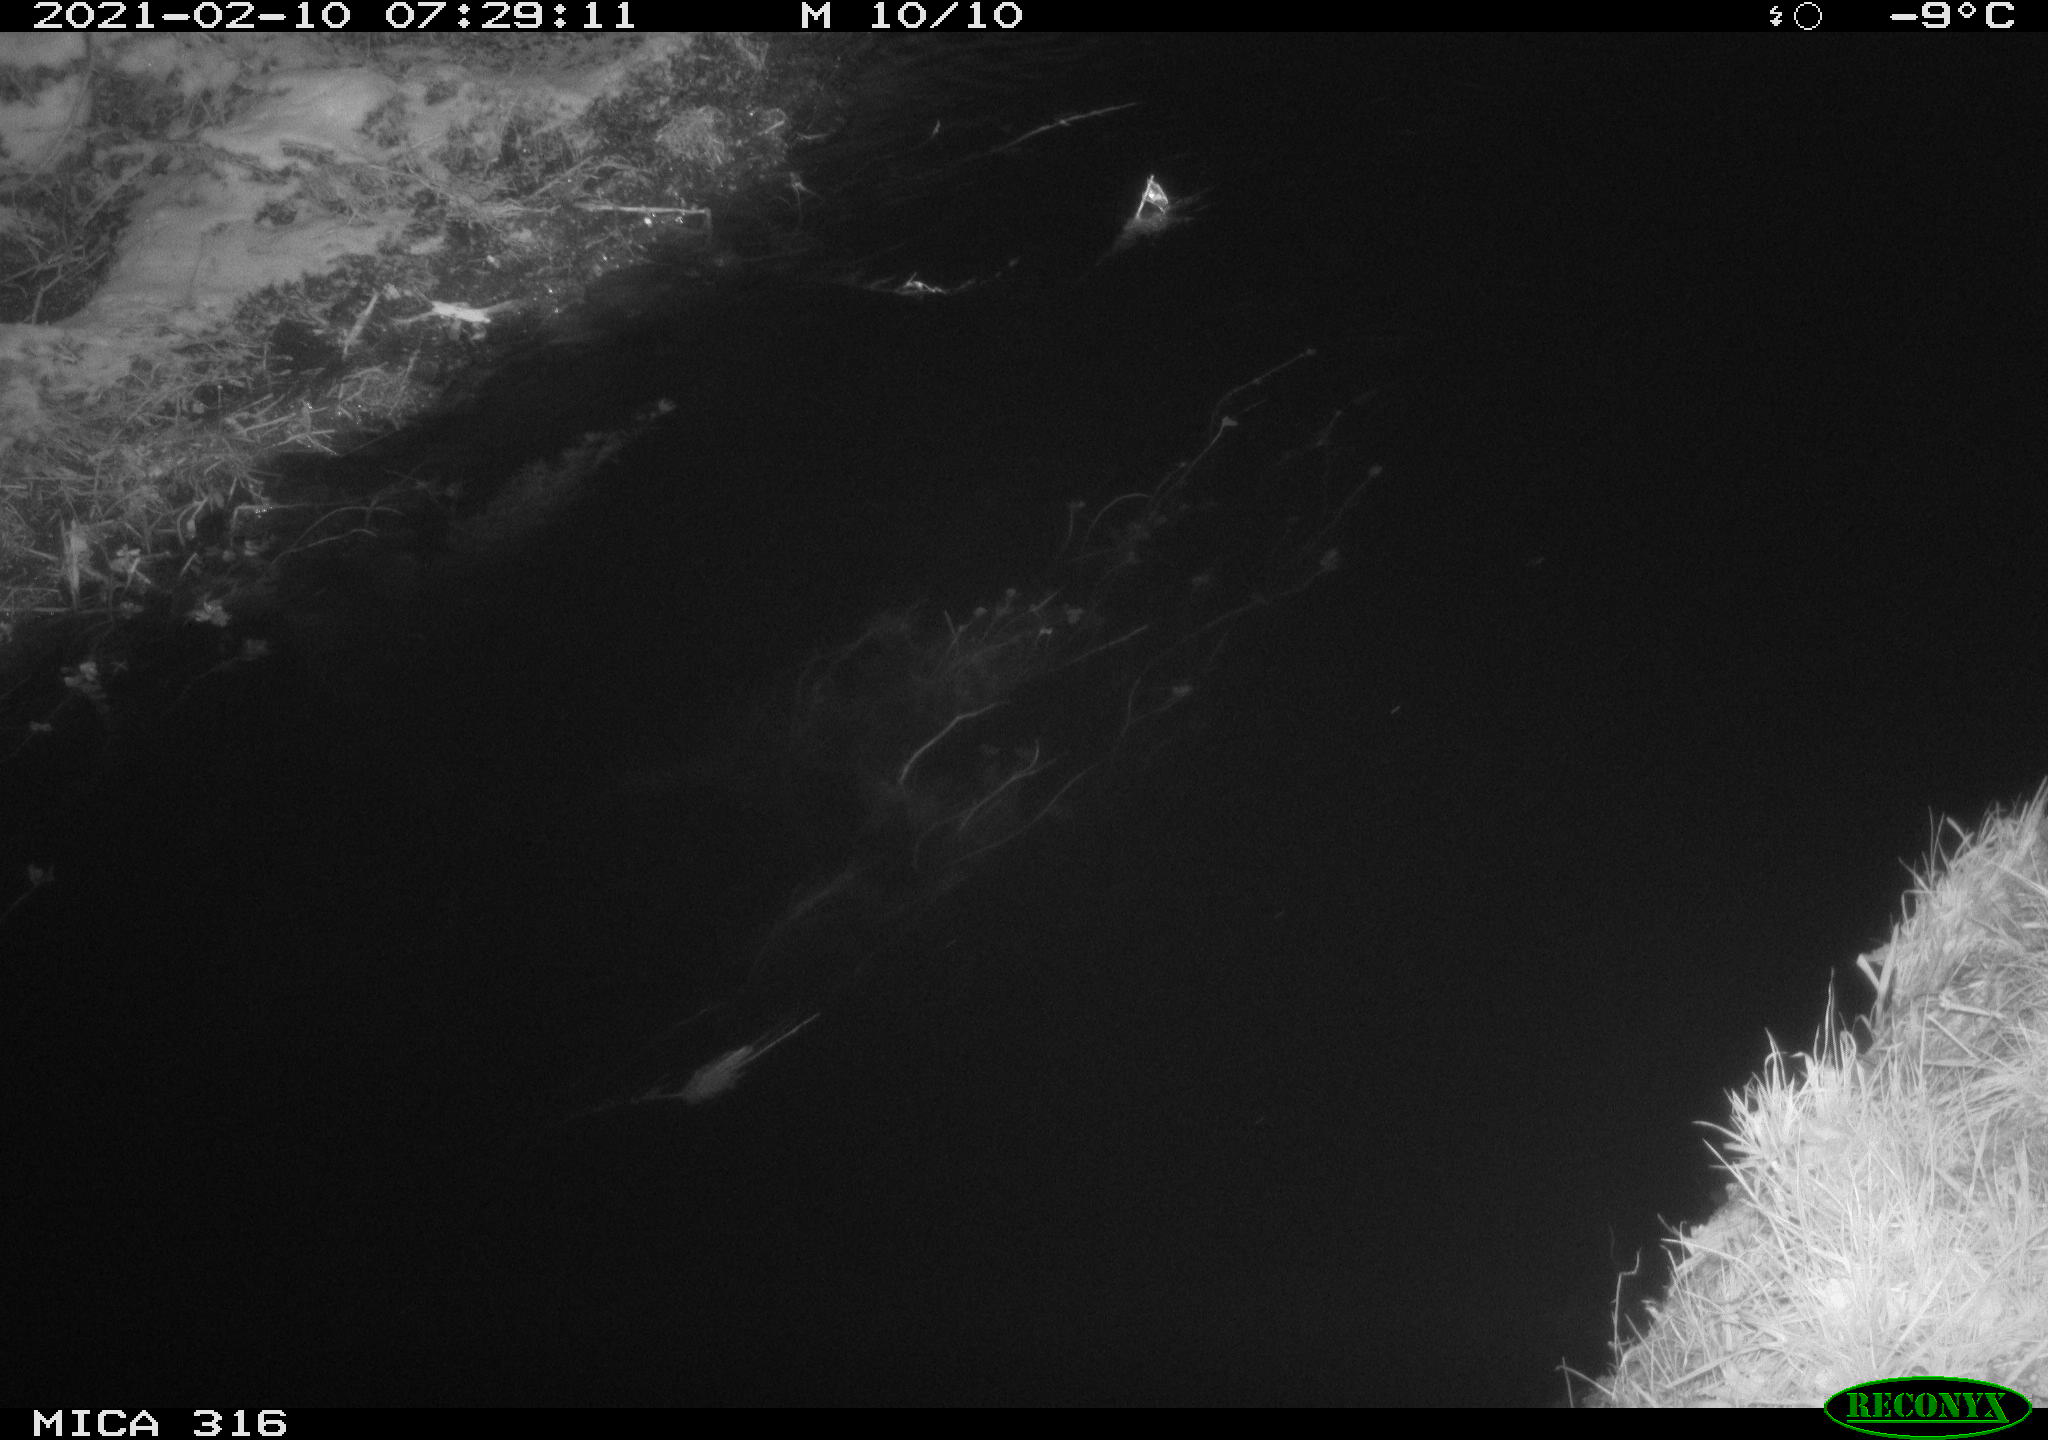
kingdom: Animalia
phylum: Chordata
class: Aves
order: Gruiformes
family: Rallidae
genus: Fulica
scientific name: Fulica atra
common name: Eurasian coot
